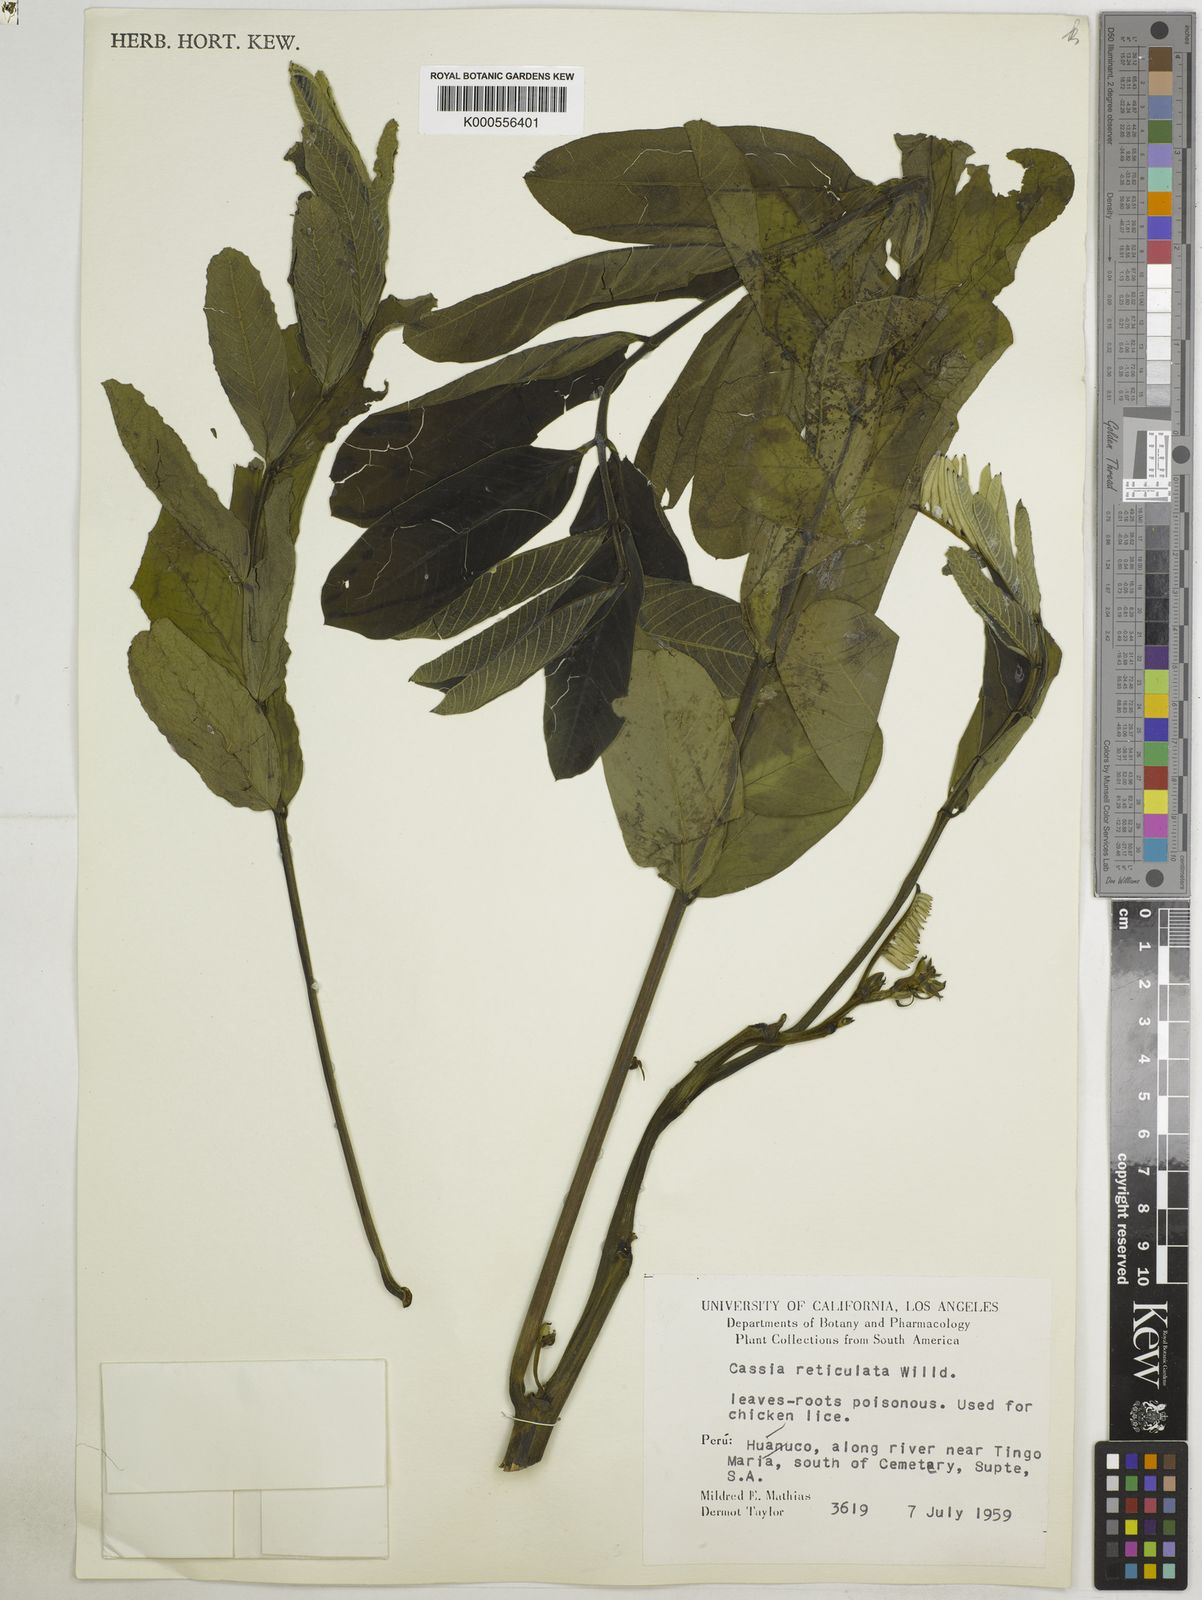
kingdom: Plantae
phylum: Tracheophyta
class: Magnoliopsida
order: Fabales
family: Fabaceae
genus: Senna
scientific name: Senna reticulata
